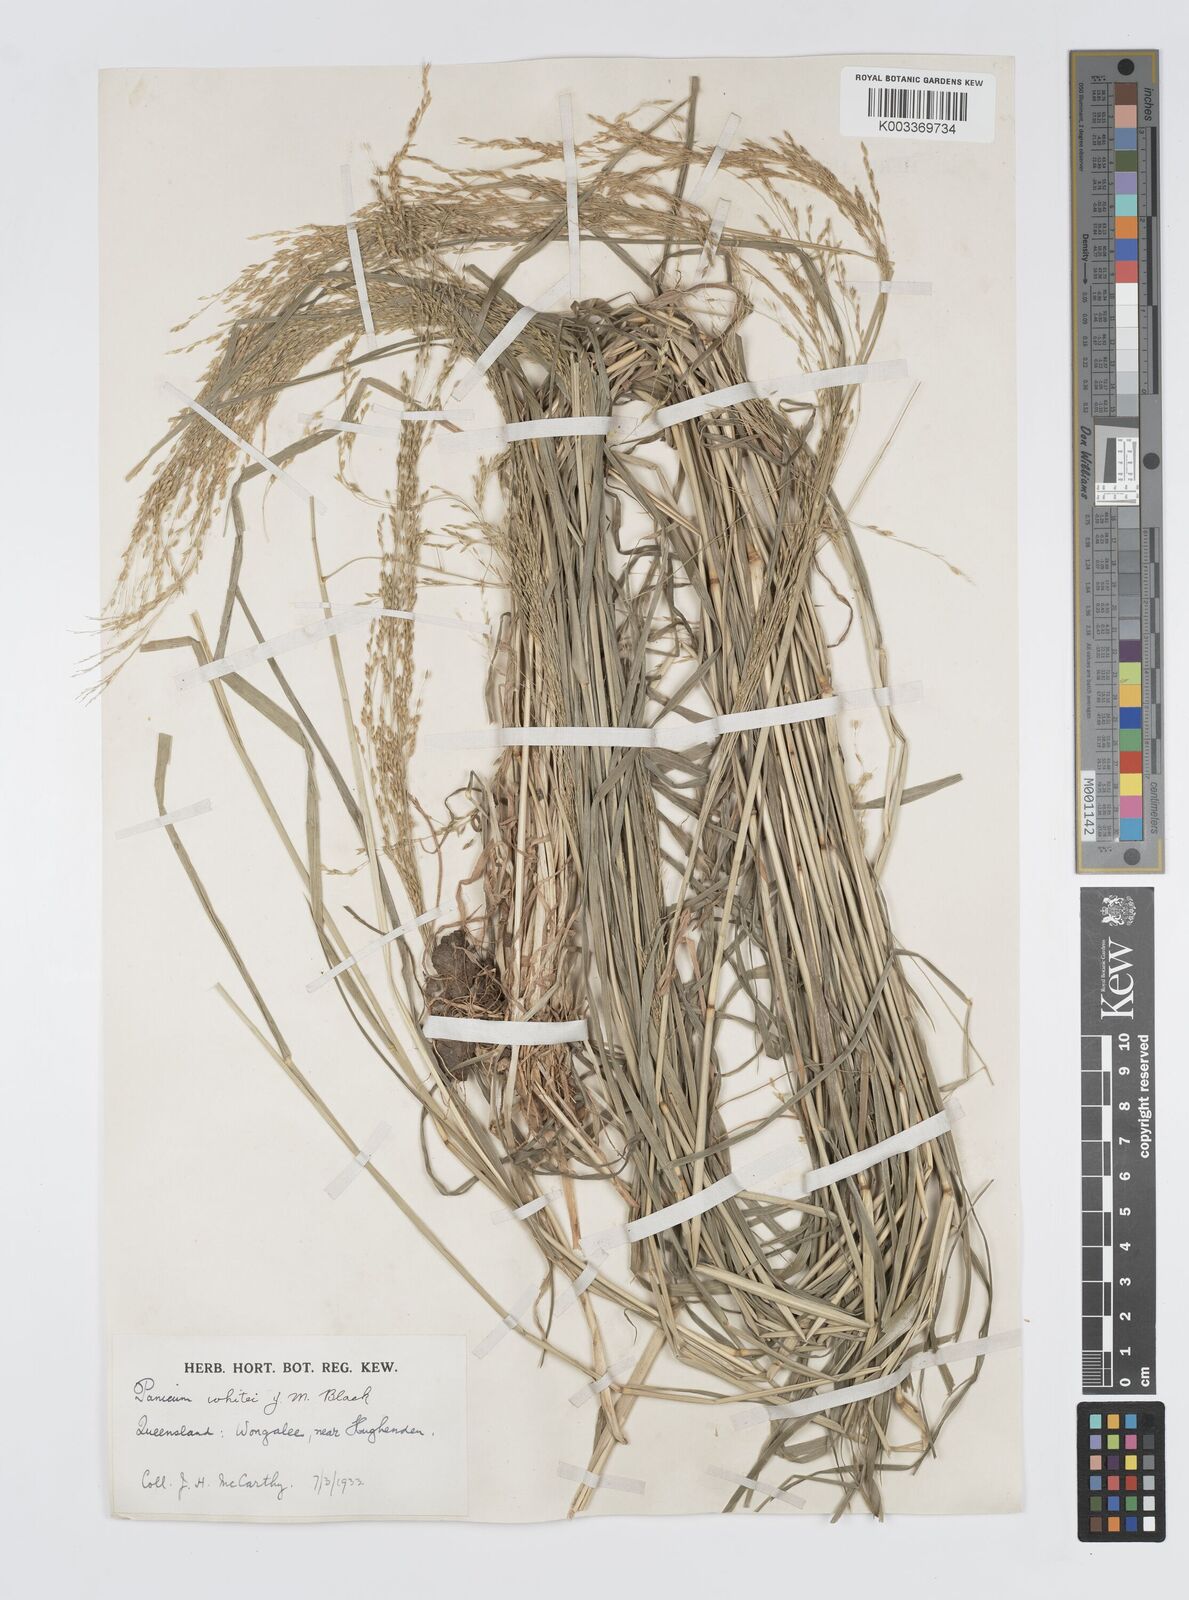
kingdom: Plantae
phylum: Tracheophyta
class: Liliopsida
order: Poales
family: Poaceae
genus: Panicum
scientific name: Panicum laevinode
